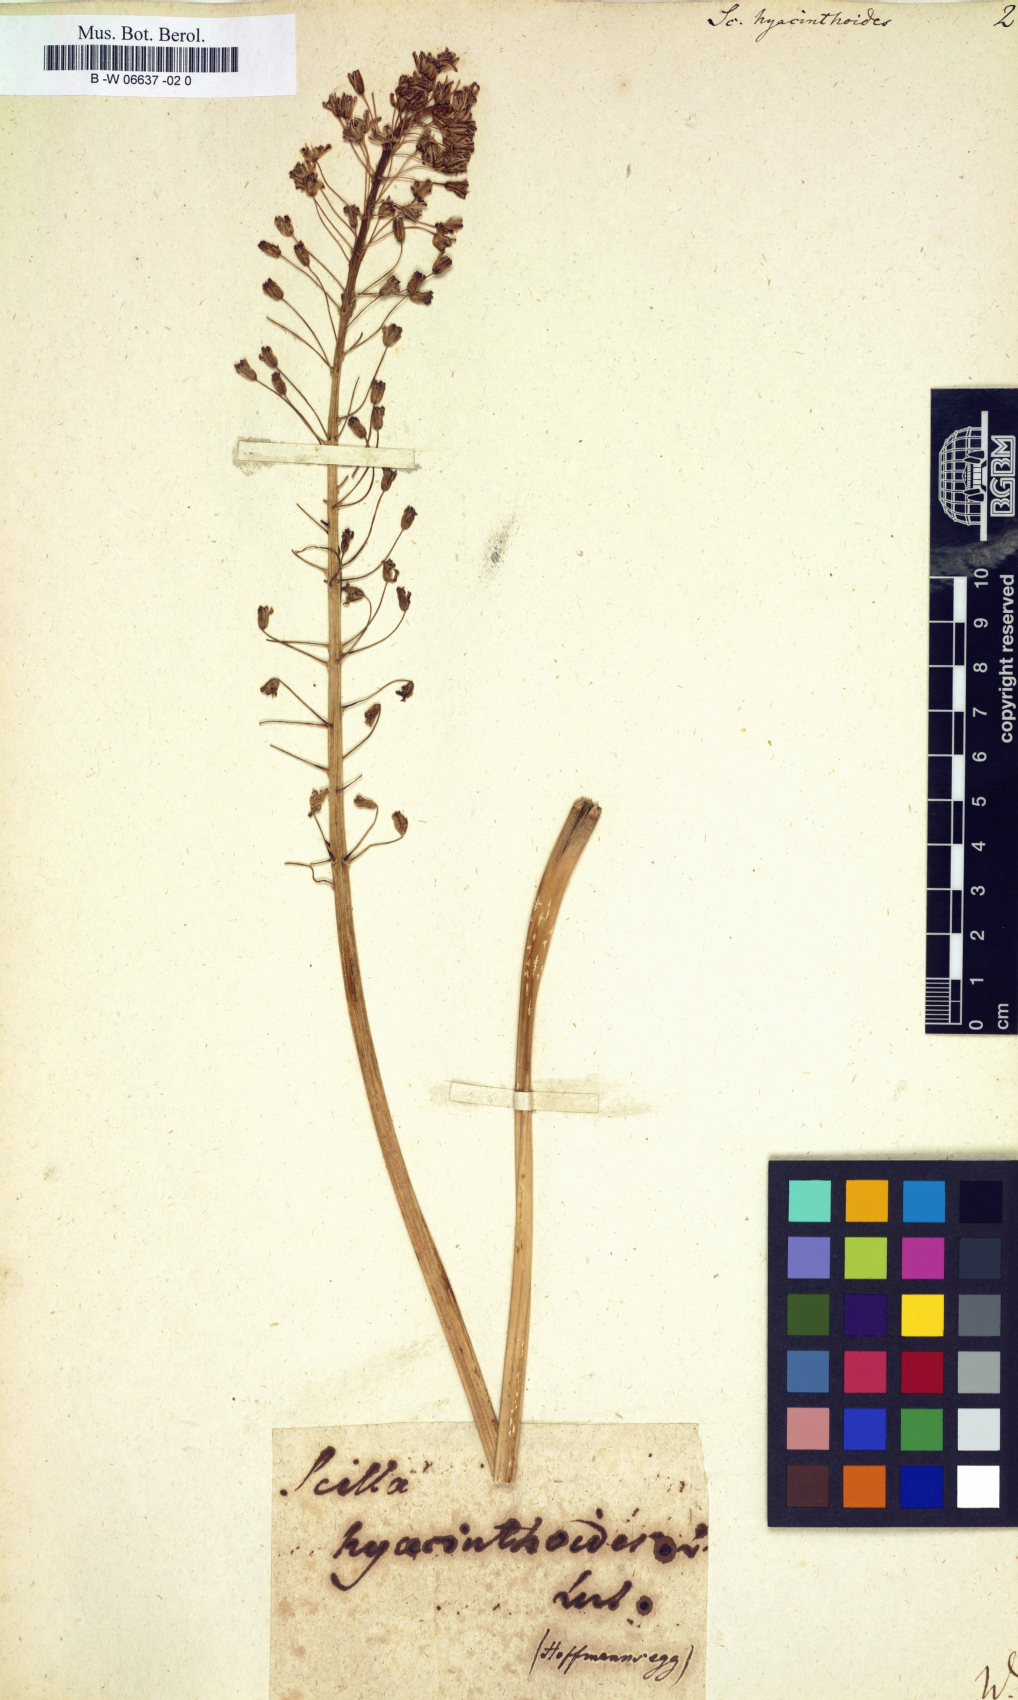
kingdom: Plantae
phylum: Tracheophyta
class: Liliopsida
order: Asparagales
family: Asparagaceae
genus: Scilla
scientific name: Scilla hyacinthoides
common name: Scilla
